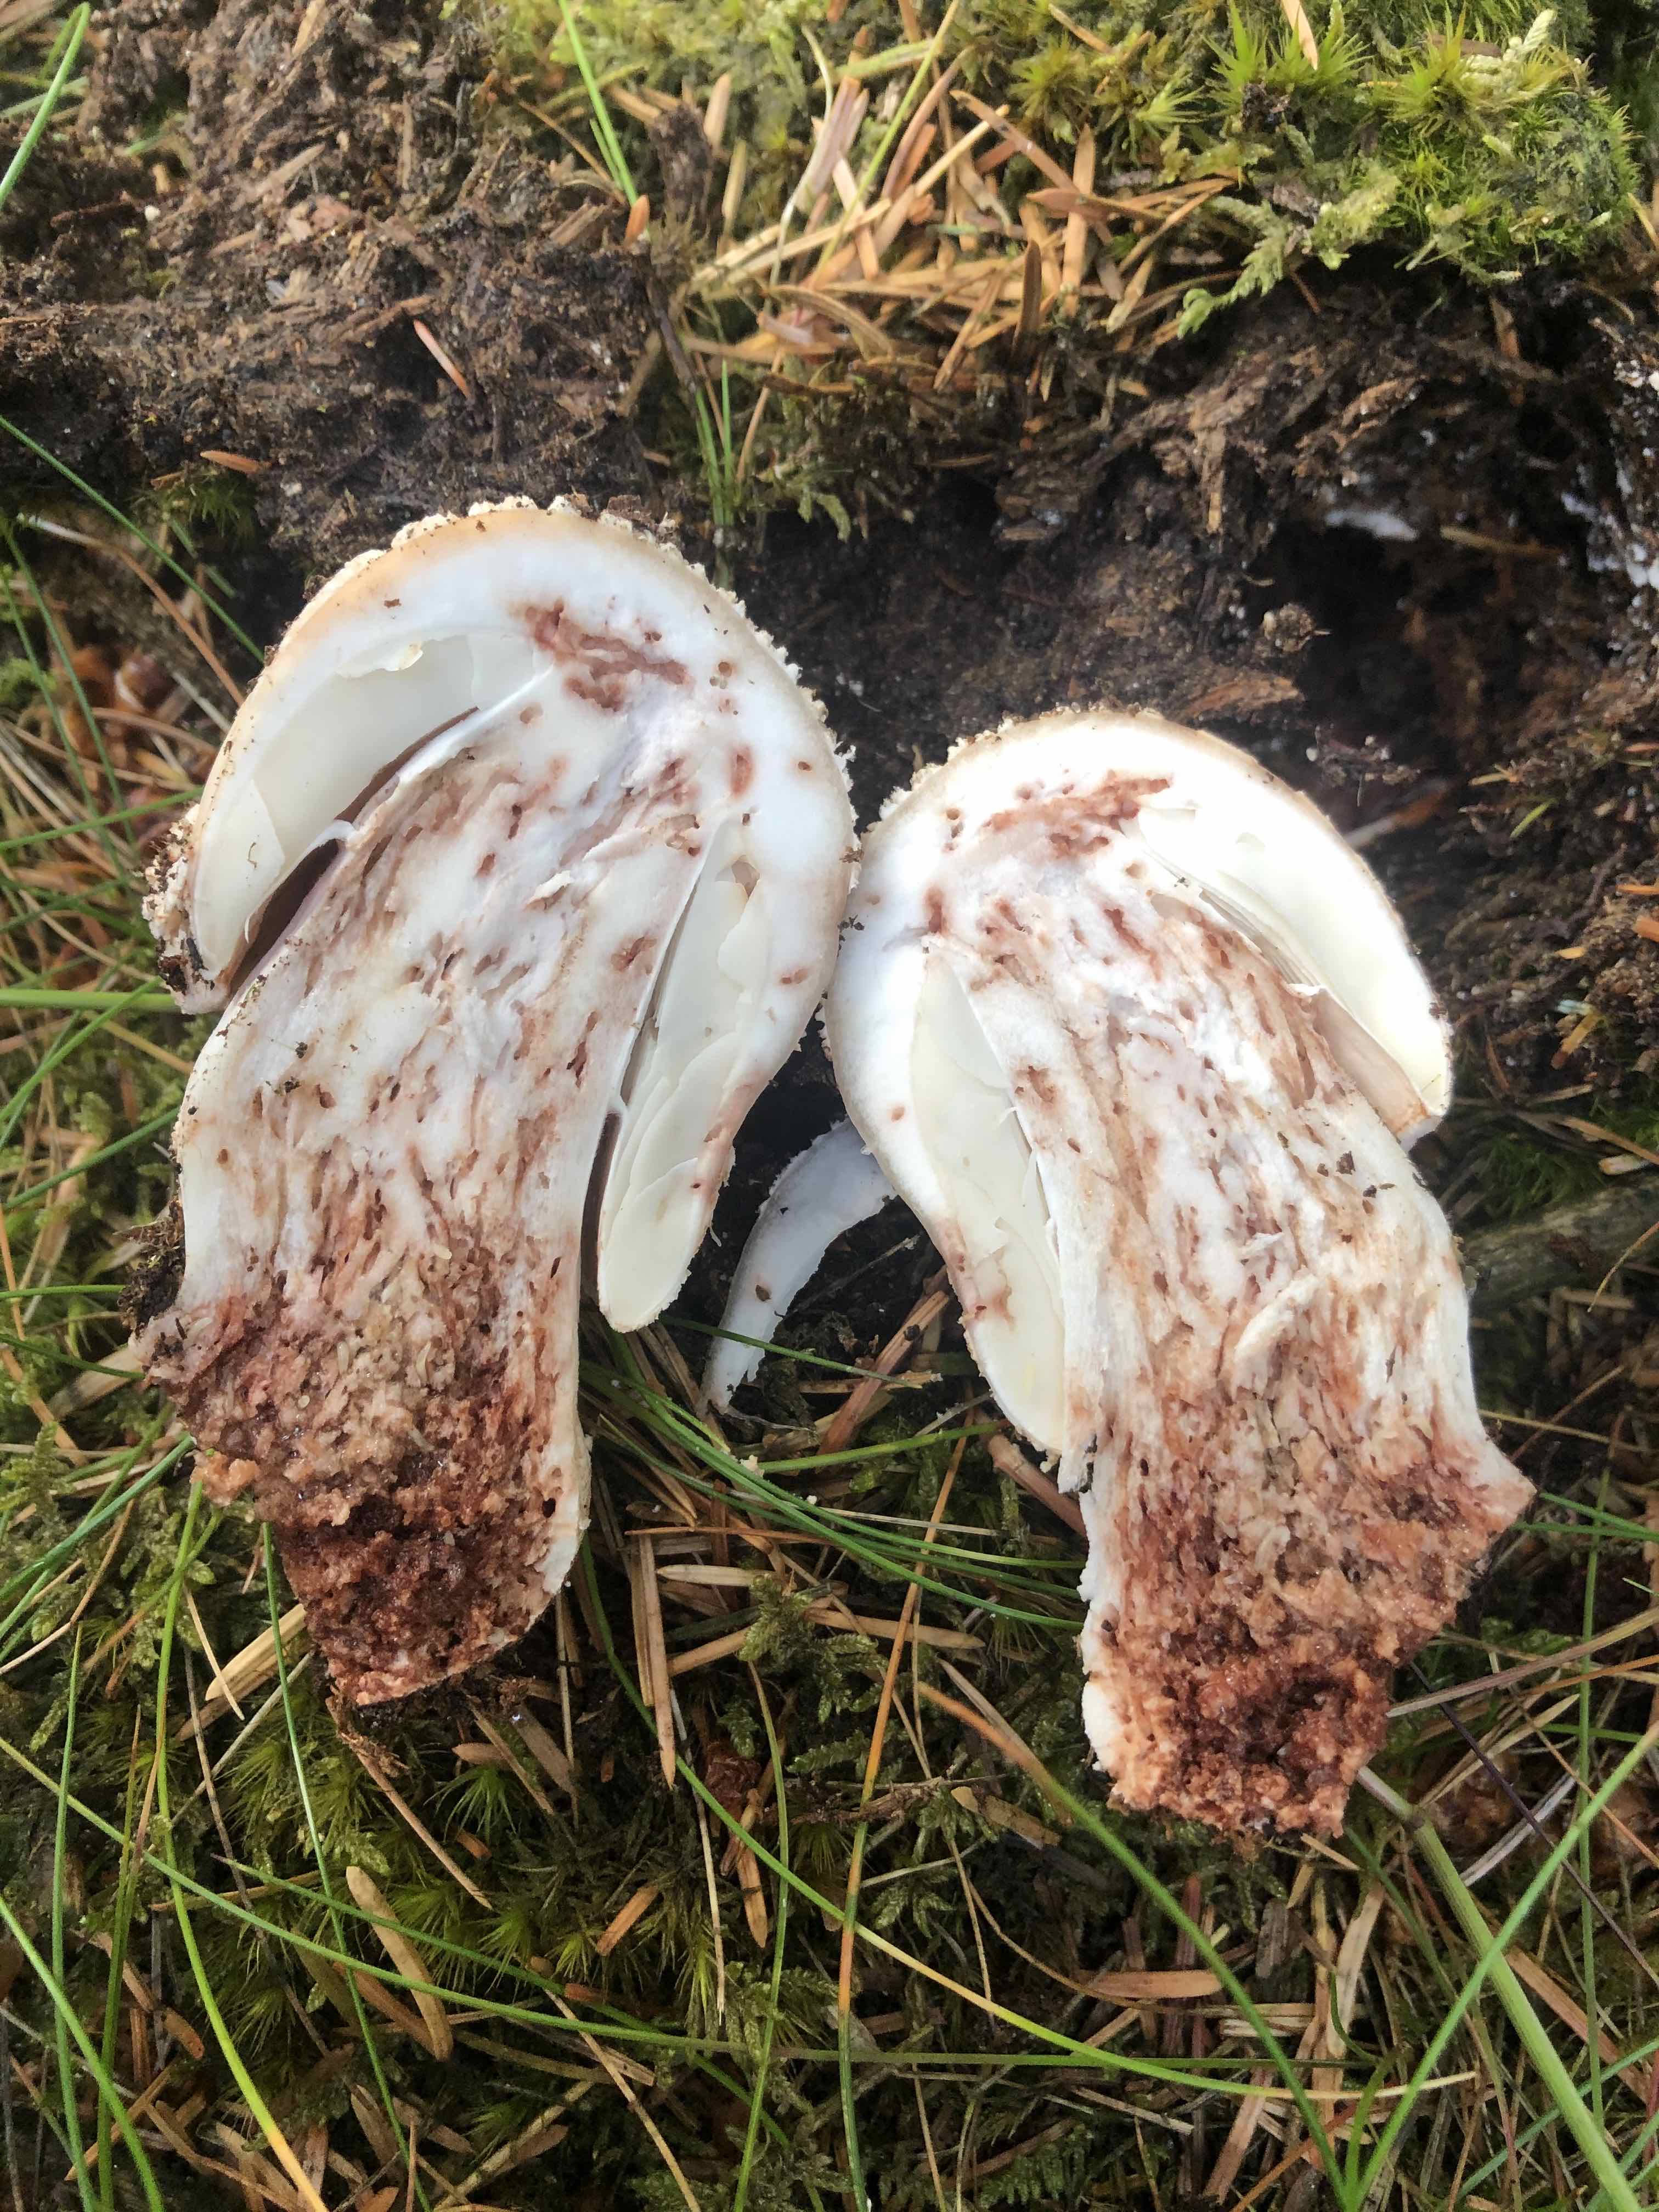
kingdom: Fungi
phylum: Basidiomycota
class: Agaricomycetes
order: Agaricales
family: Amanitaceae
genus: Amanita
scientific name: Amanita rubescens
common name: rødmende fluesvamp
